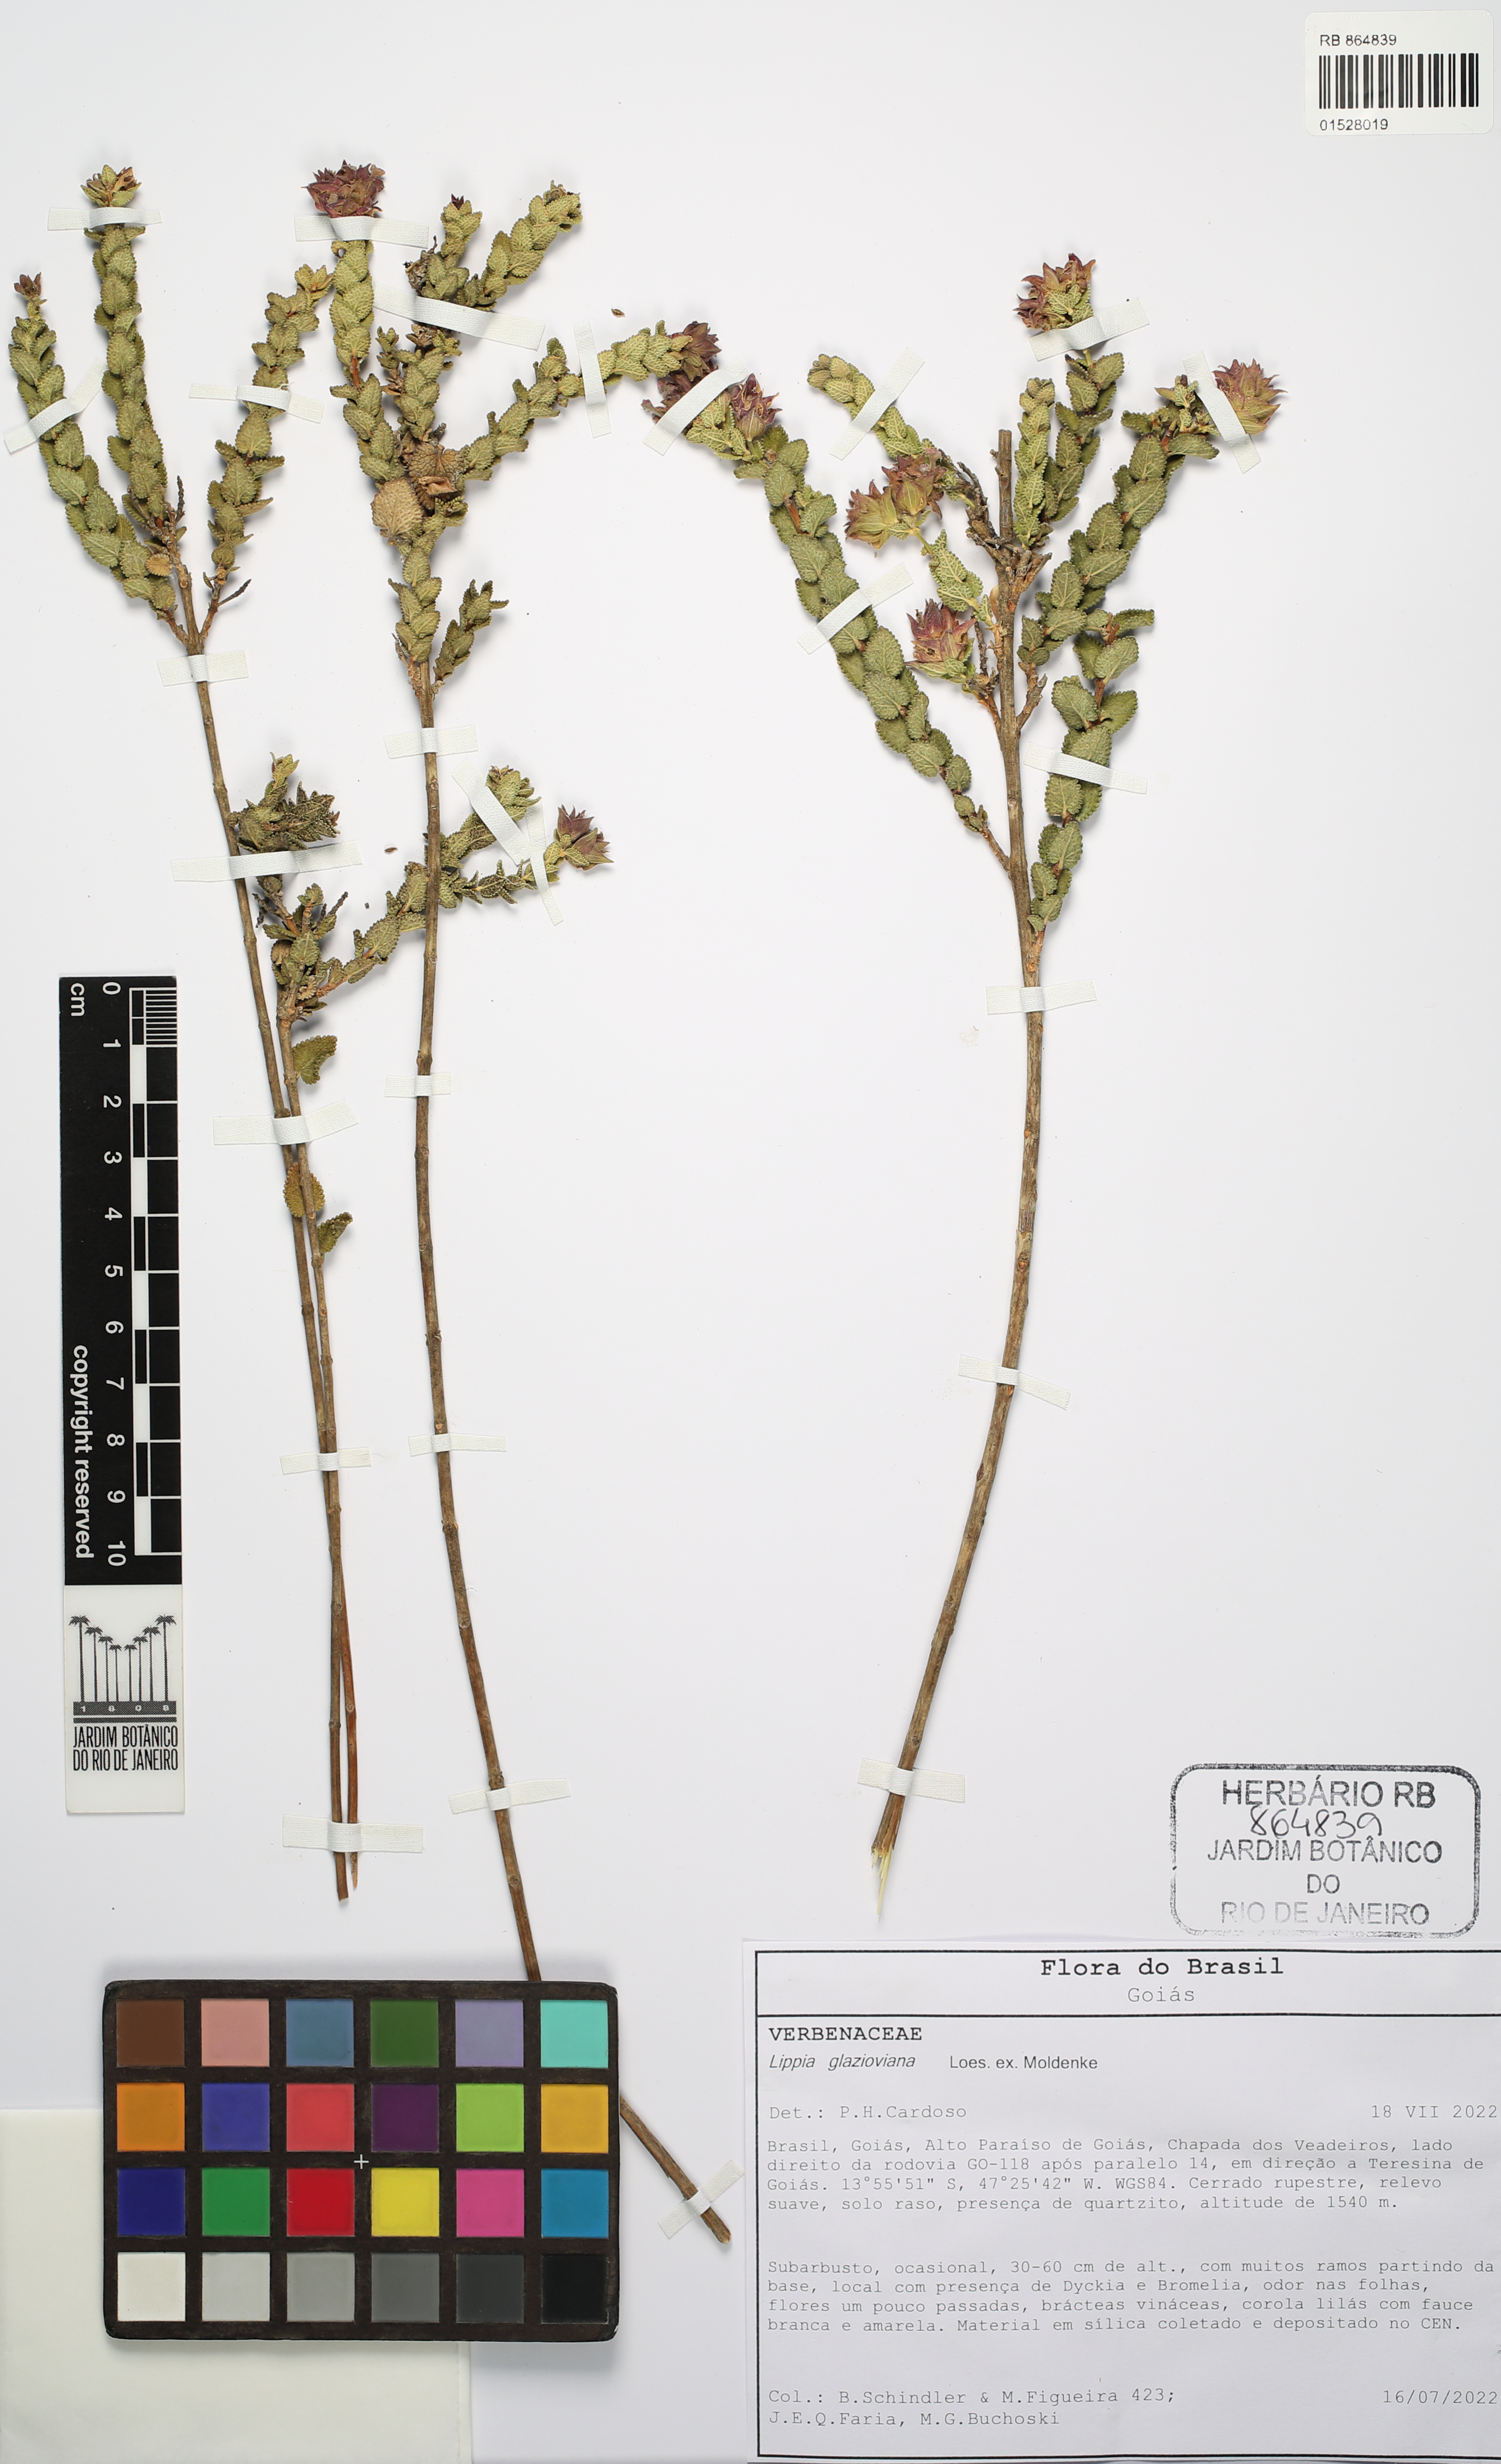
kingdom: Plantae
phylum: Tracheophyta
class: Magnoliopsida
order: Lamiales
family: Verbenaceae
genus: Lippia
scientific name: Lippia glazioviana
